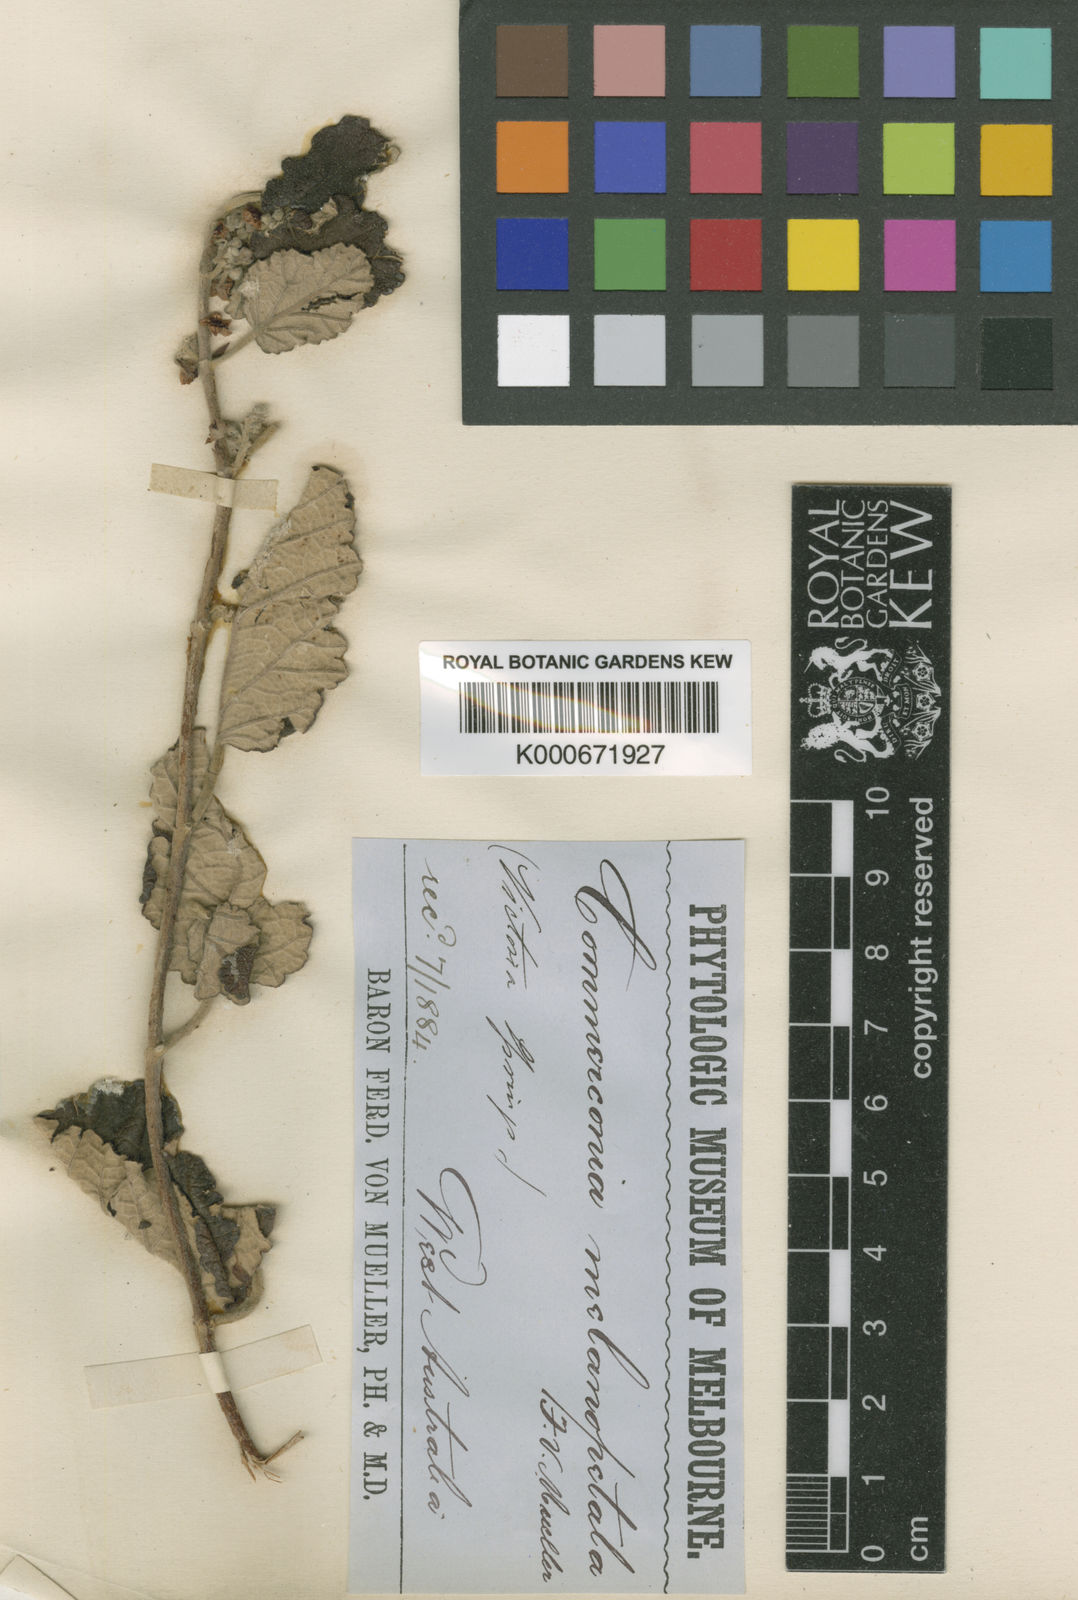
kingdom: Plantae
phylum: Tracheophyta
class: Magnoliopsida
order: Malvales
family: Malvaceae
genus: Androcalva
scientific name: Androcalva melanopetala
